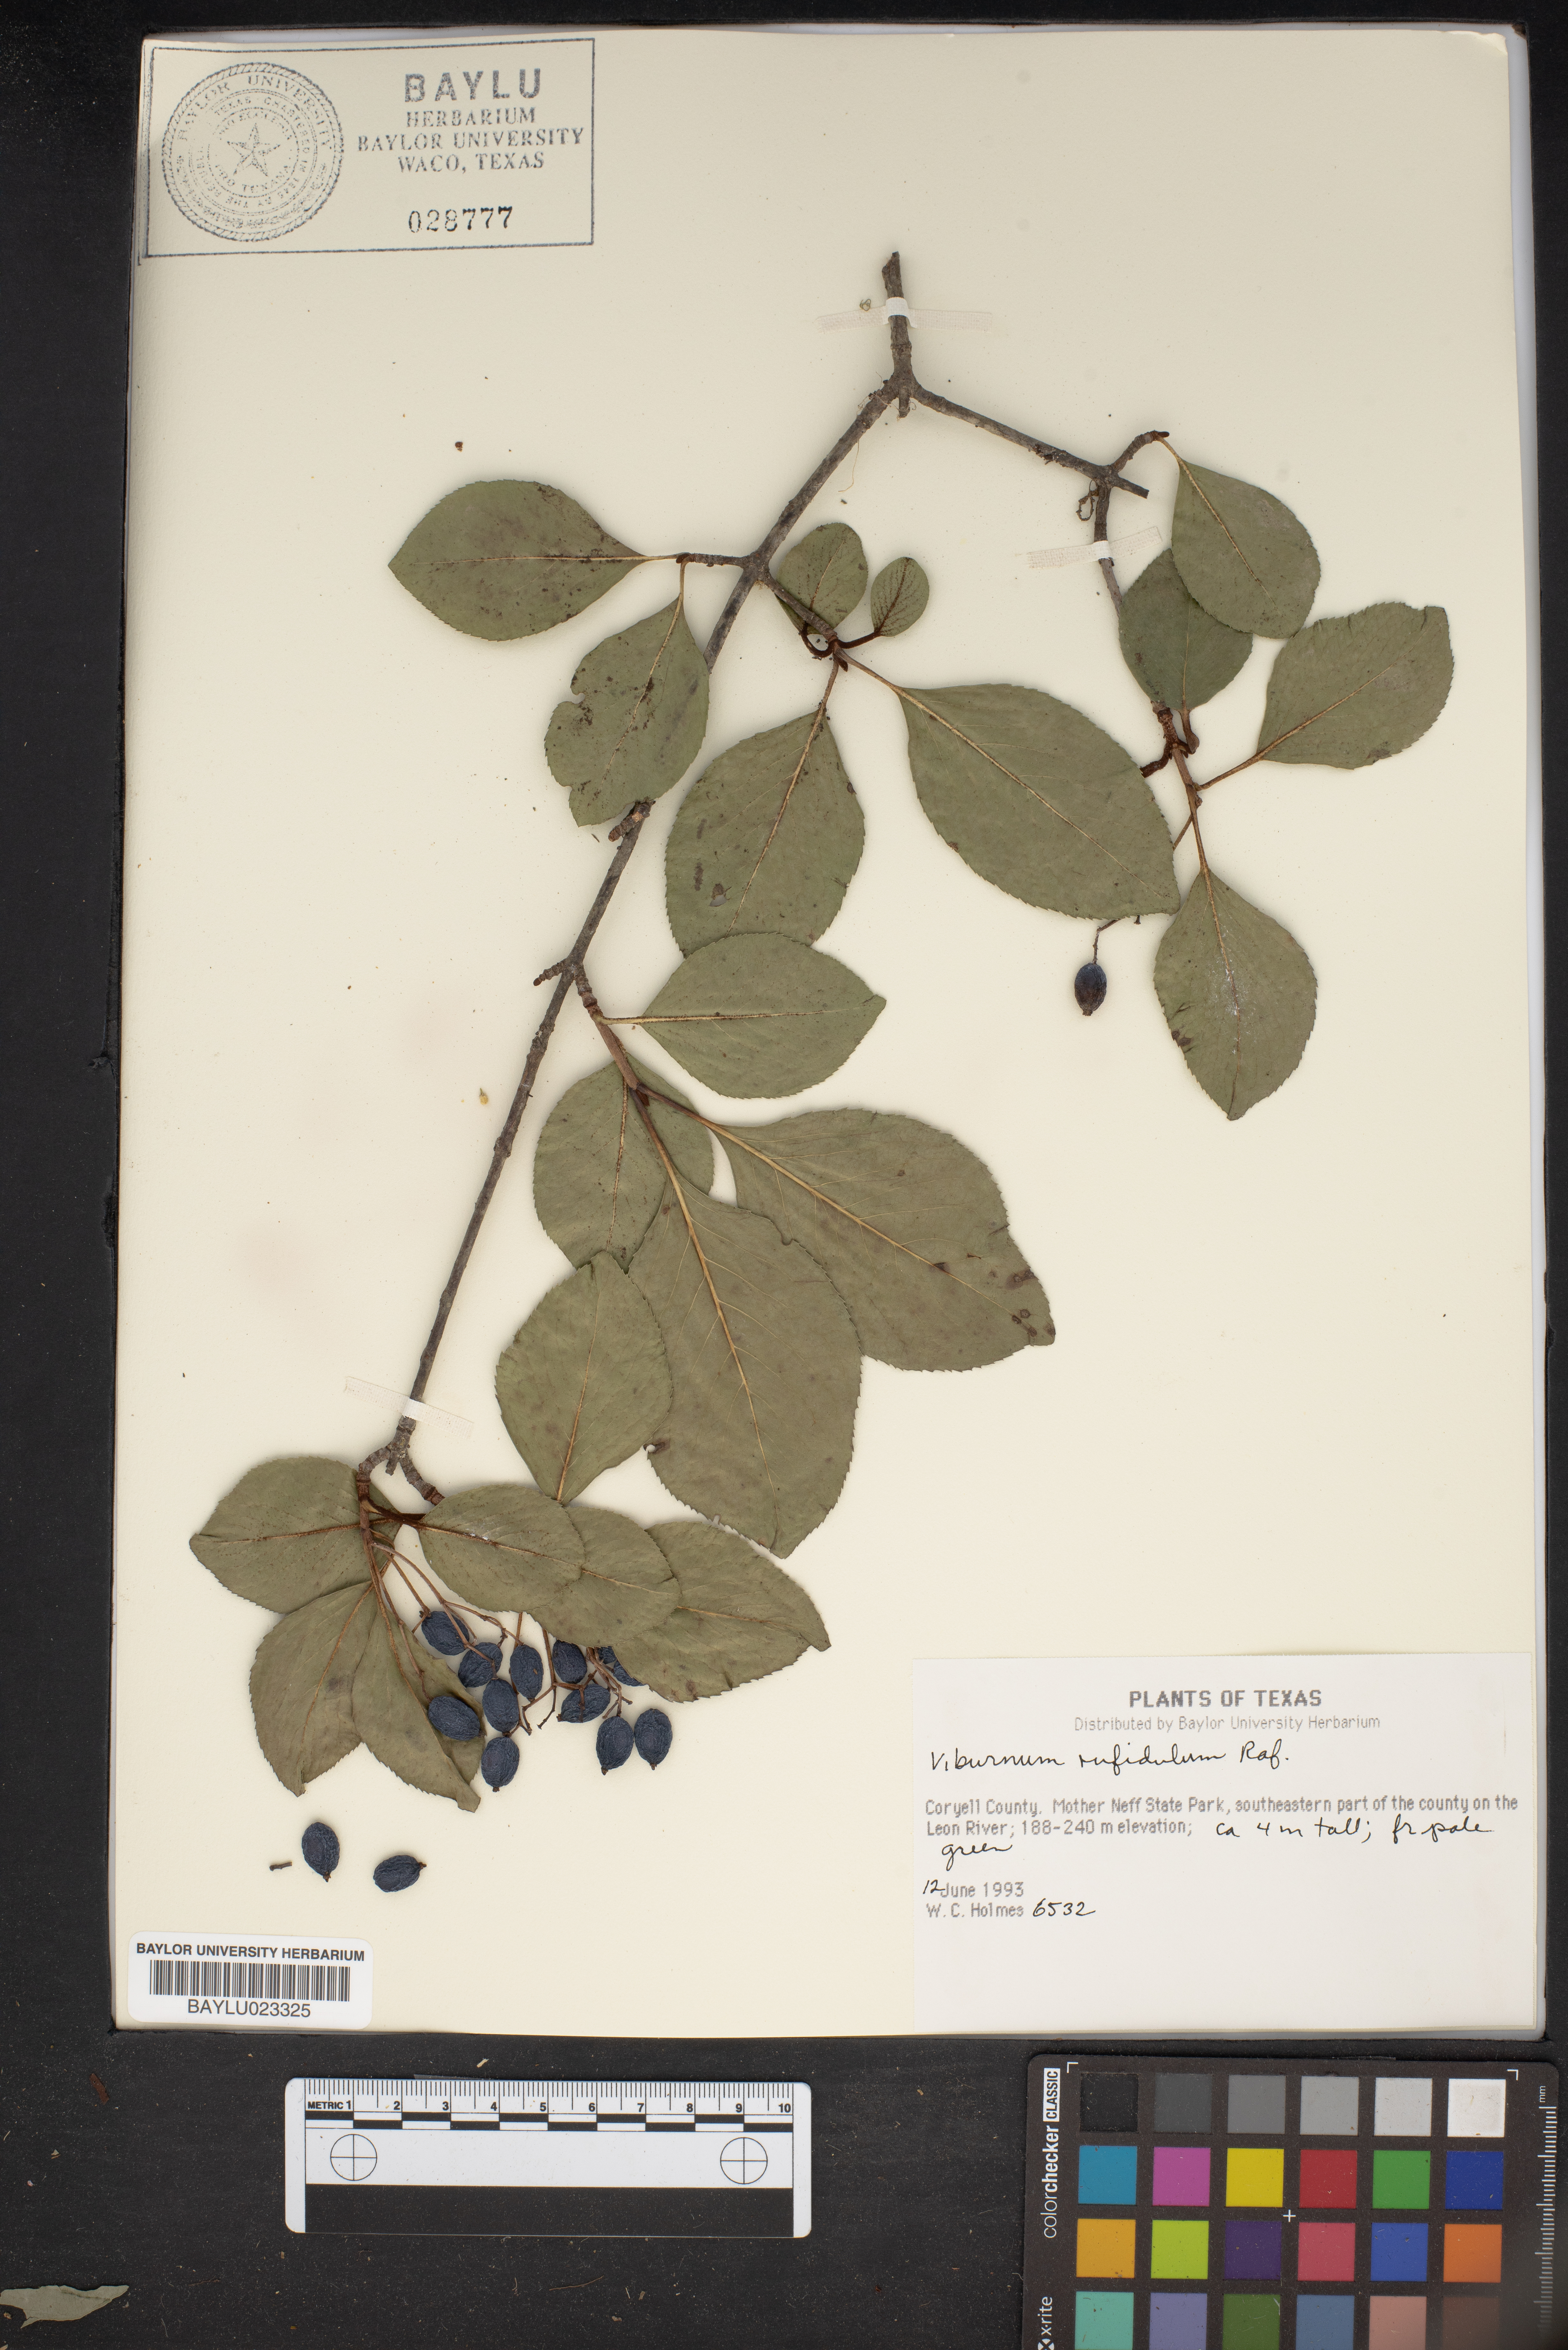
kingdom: Plantae
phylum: Tracheophyta
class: Magnoliopsida
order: Dipsacales
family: Viburnaceae
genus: Viburnum
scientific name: Viburnum rufidulum
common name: Blue haw
